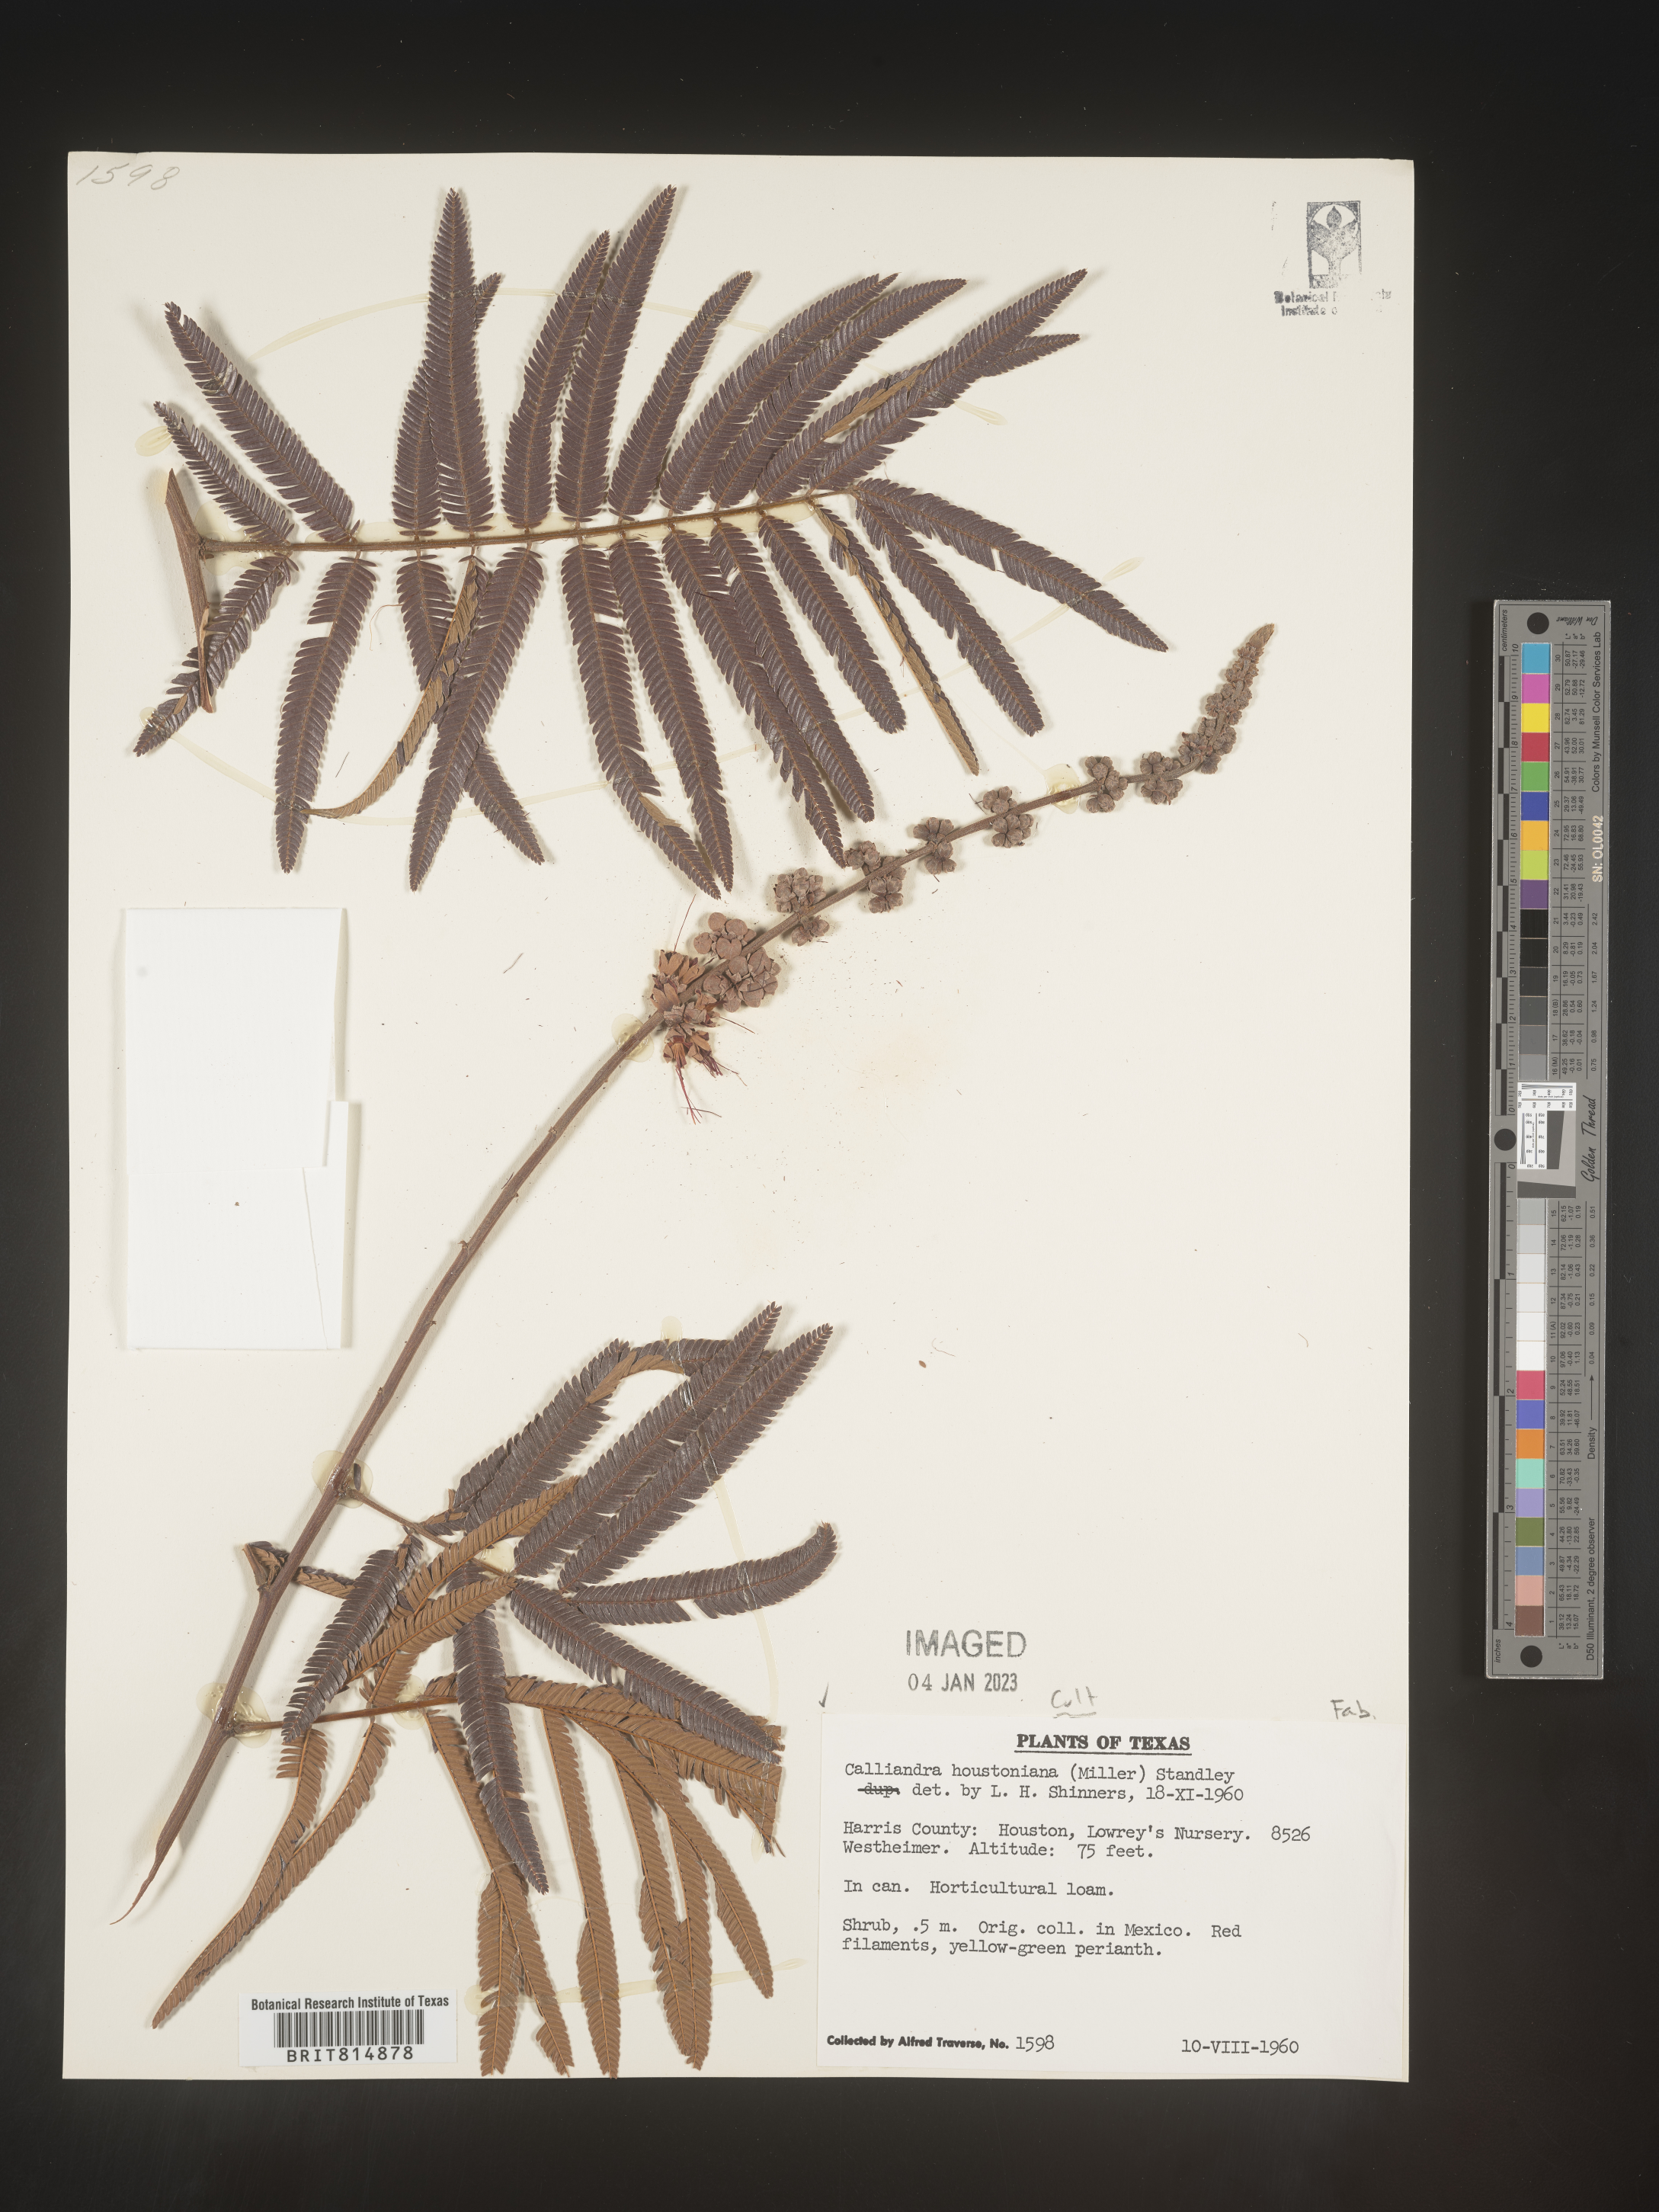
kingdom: Plantae
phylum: Tracheophyta
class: Magnoliopsida
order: Fabales
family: Fabaceae
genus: Calliandra
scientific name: Calliandra
